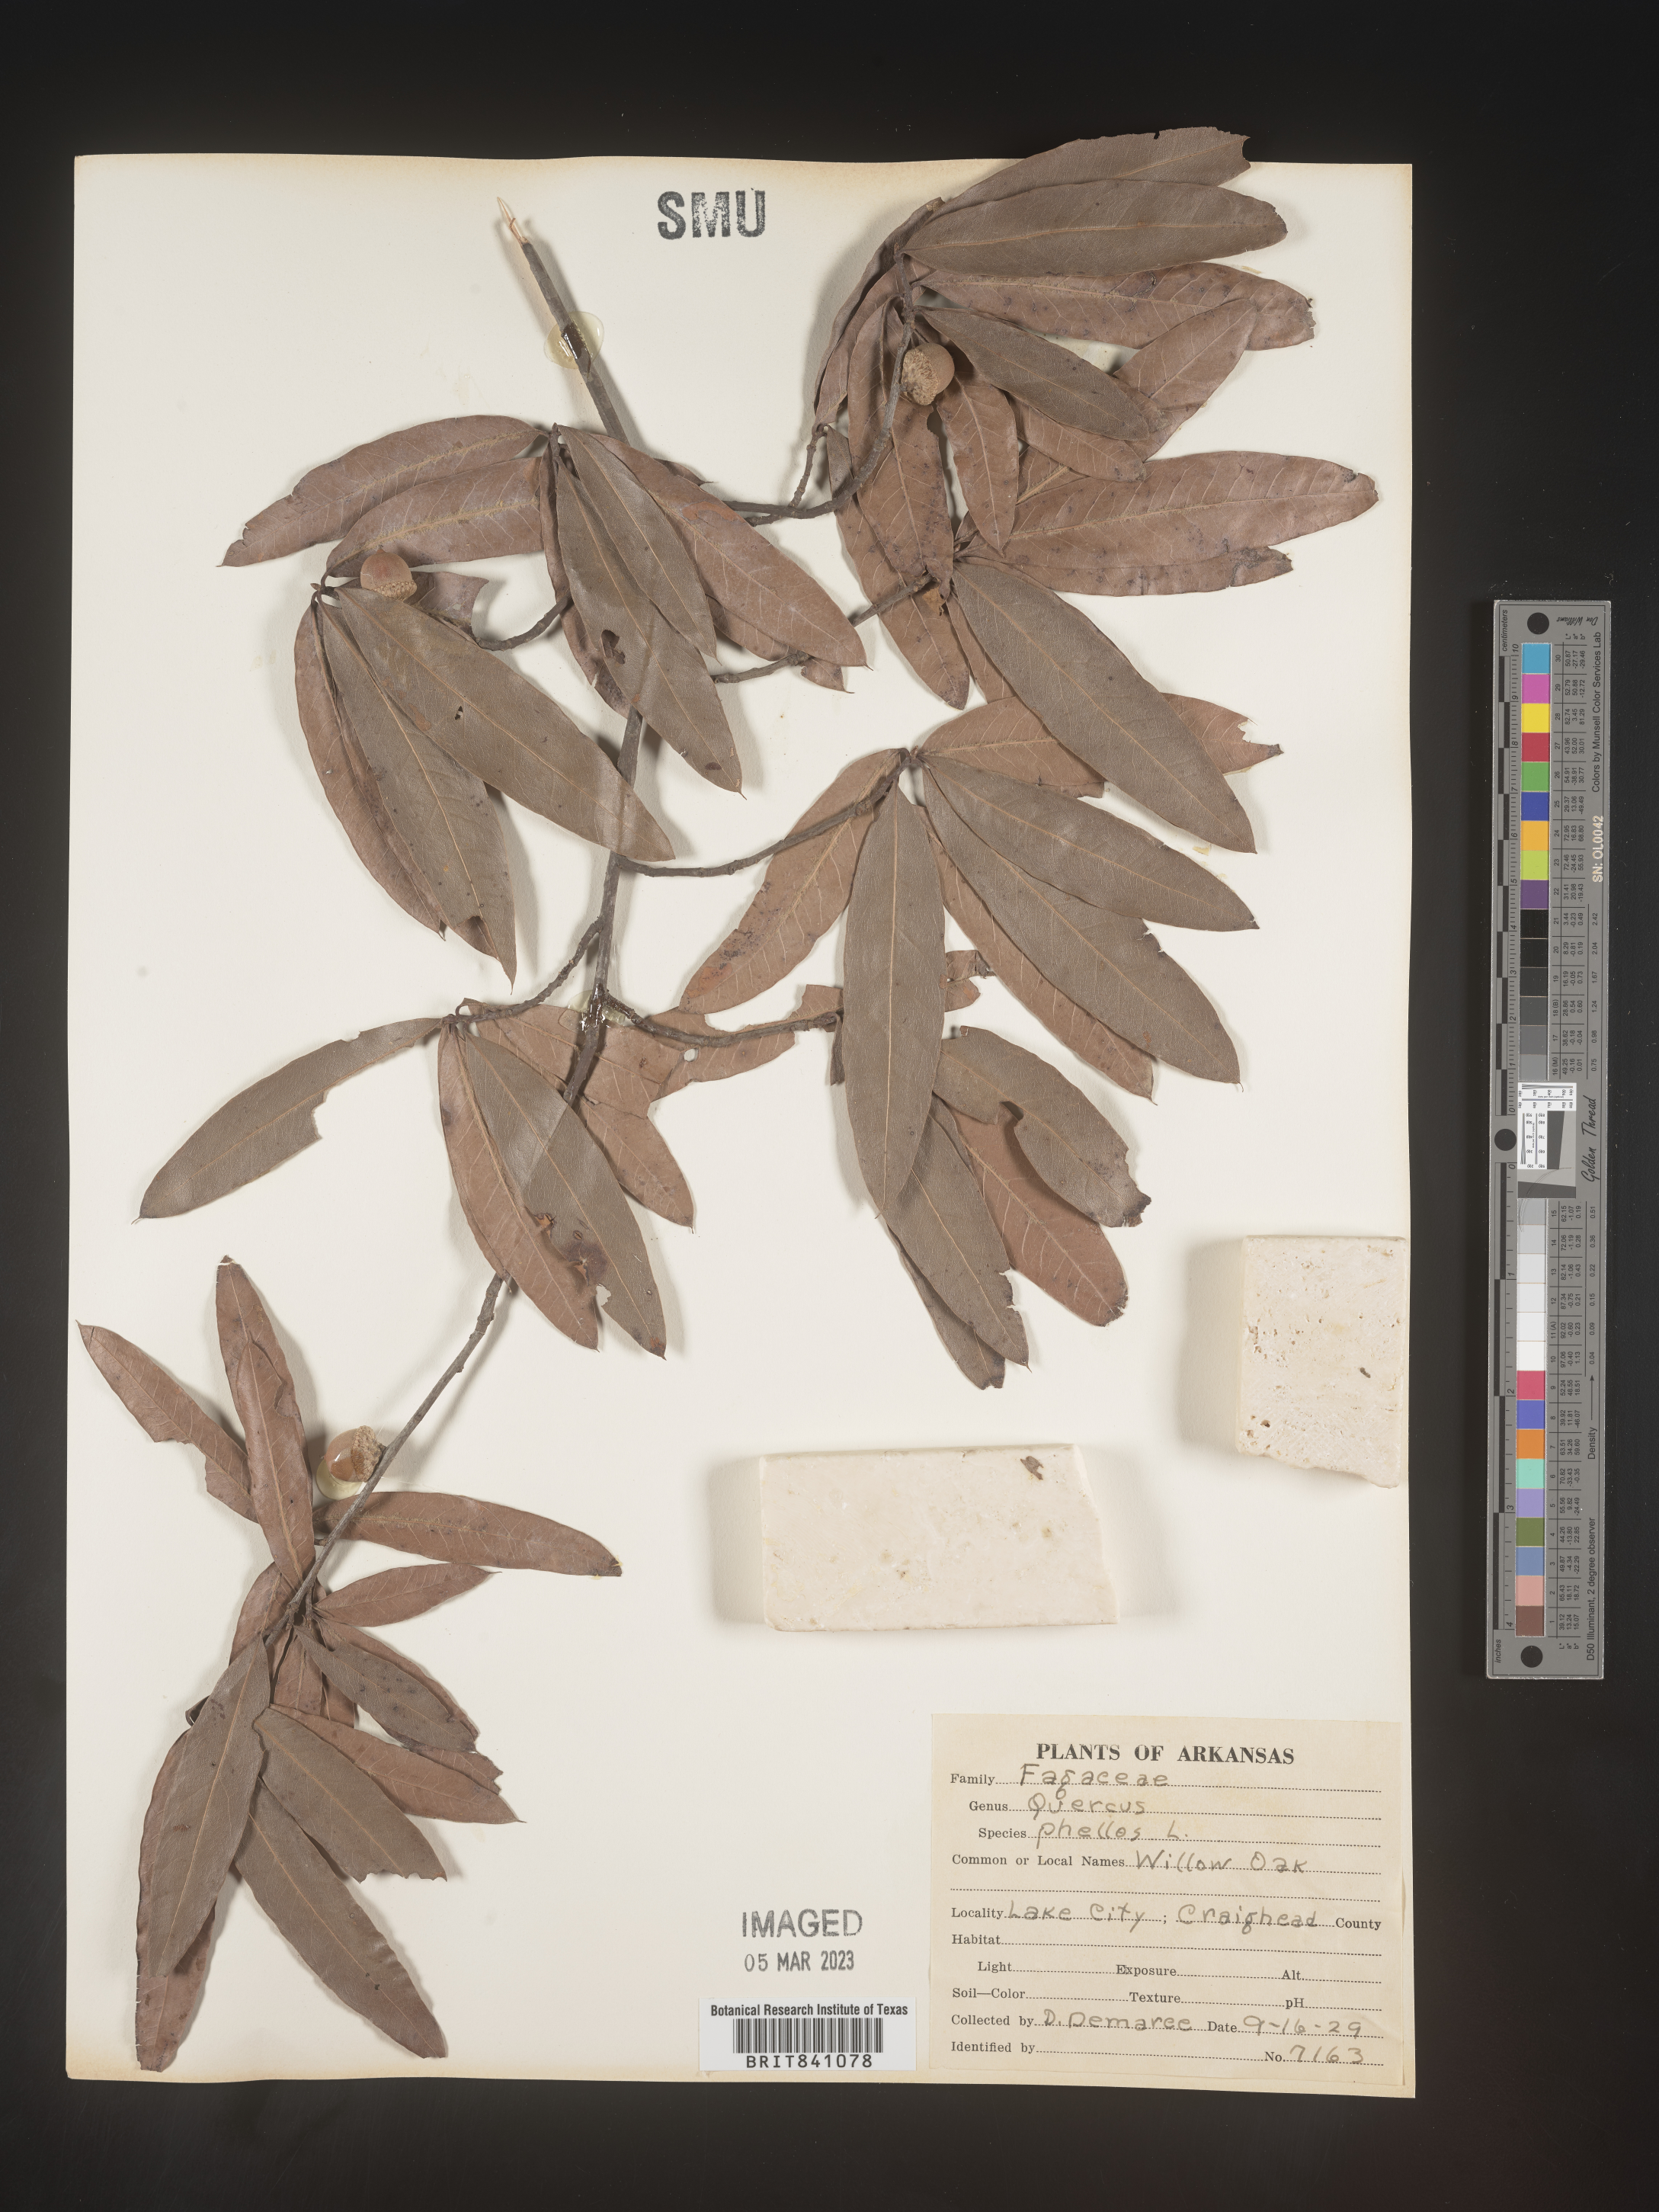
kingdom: Plantae
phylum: Tracheophyta
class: Magnoliopsida
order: Fagales
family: Fagaceae
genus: Quercus
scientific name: Quercus phellos
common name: Willow oak
